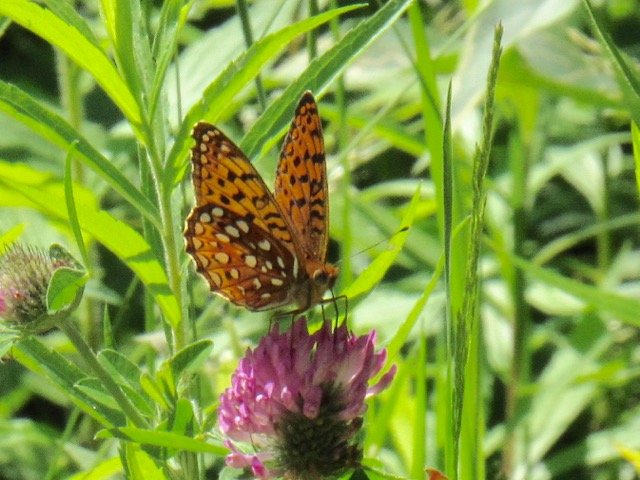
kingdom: Animalia
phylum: Arthropoda
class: Insecta
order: Lepidoptera
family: Nymphalidae
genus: Speyeria
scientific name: Speyeria atlantis
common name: Atlantis Fritillary
